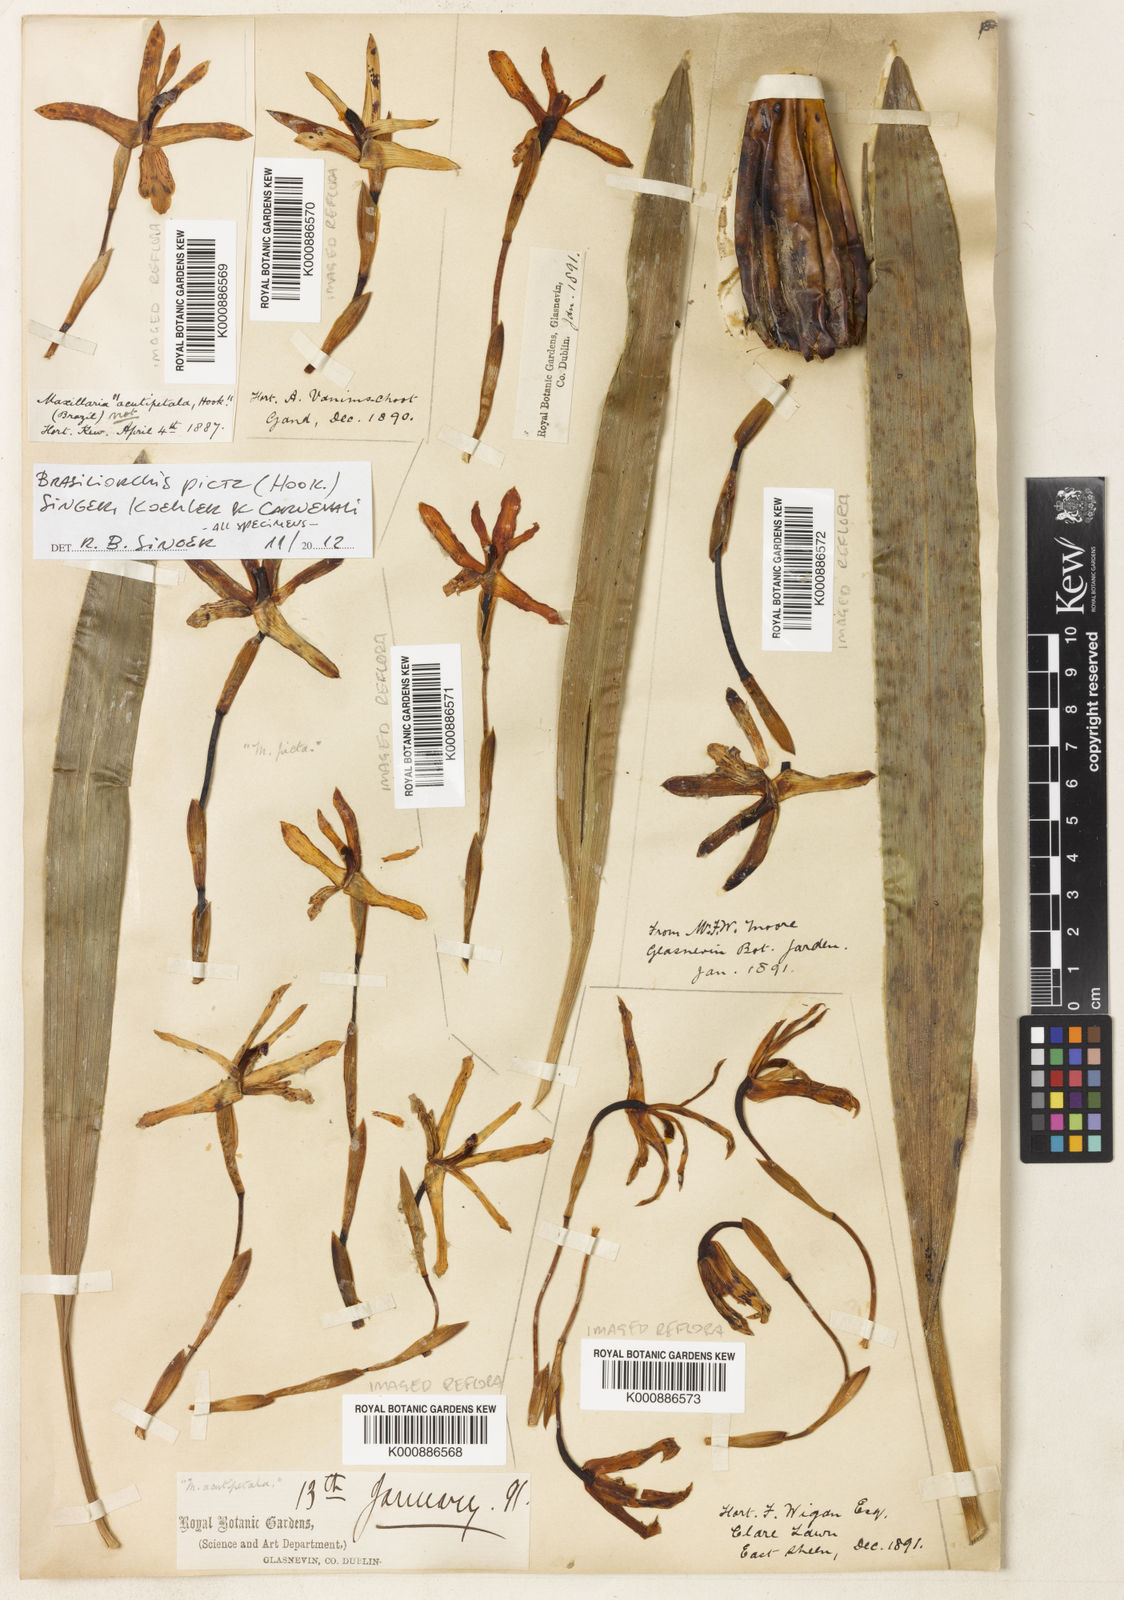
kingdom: Plantae
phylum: Tracheophyta
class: Liliopsida
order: Asparagales
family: Orchidaceae
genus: Maxillaria
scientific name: Maxillaria picta
